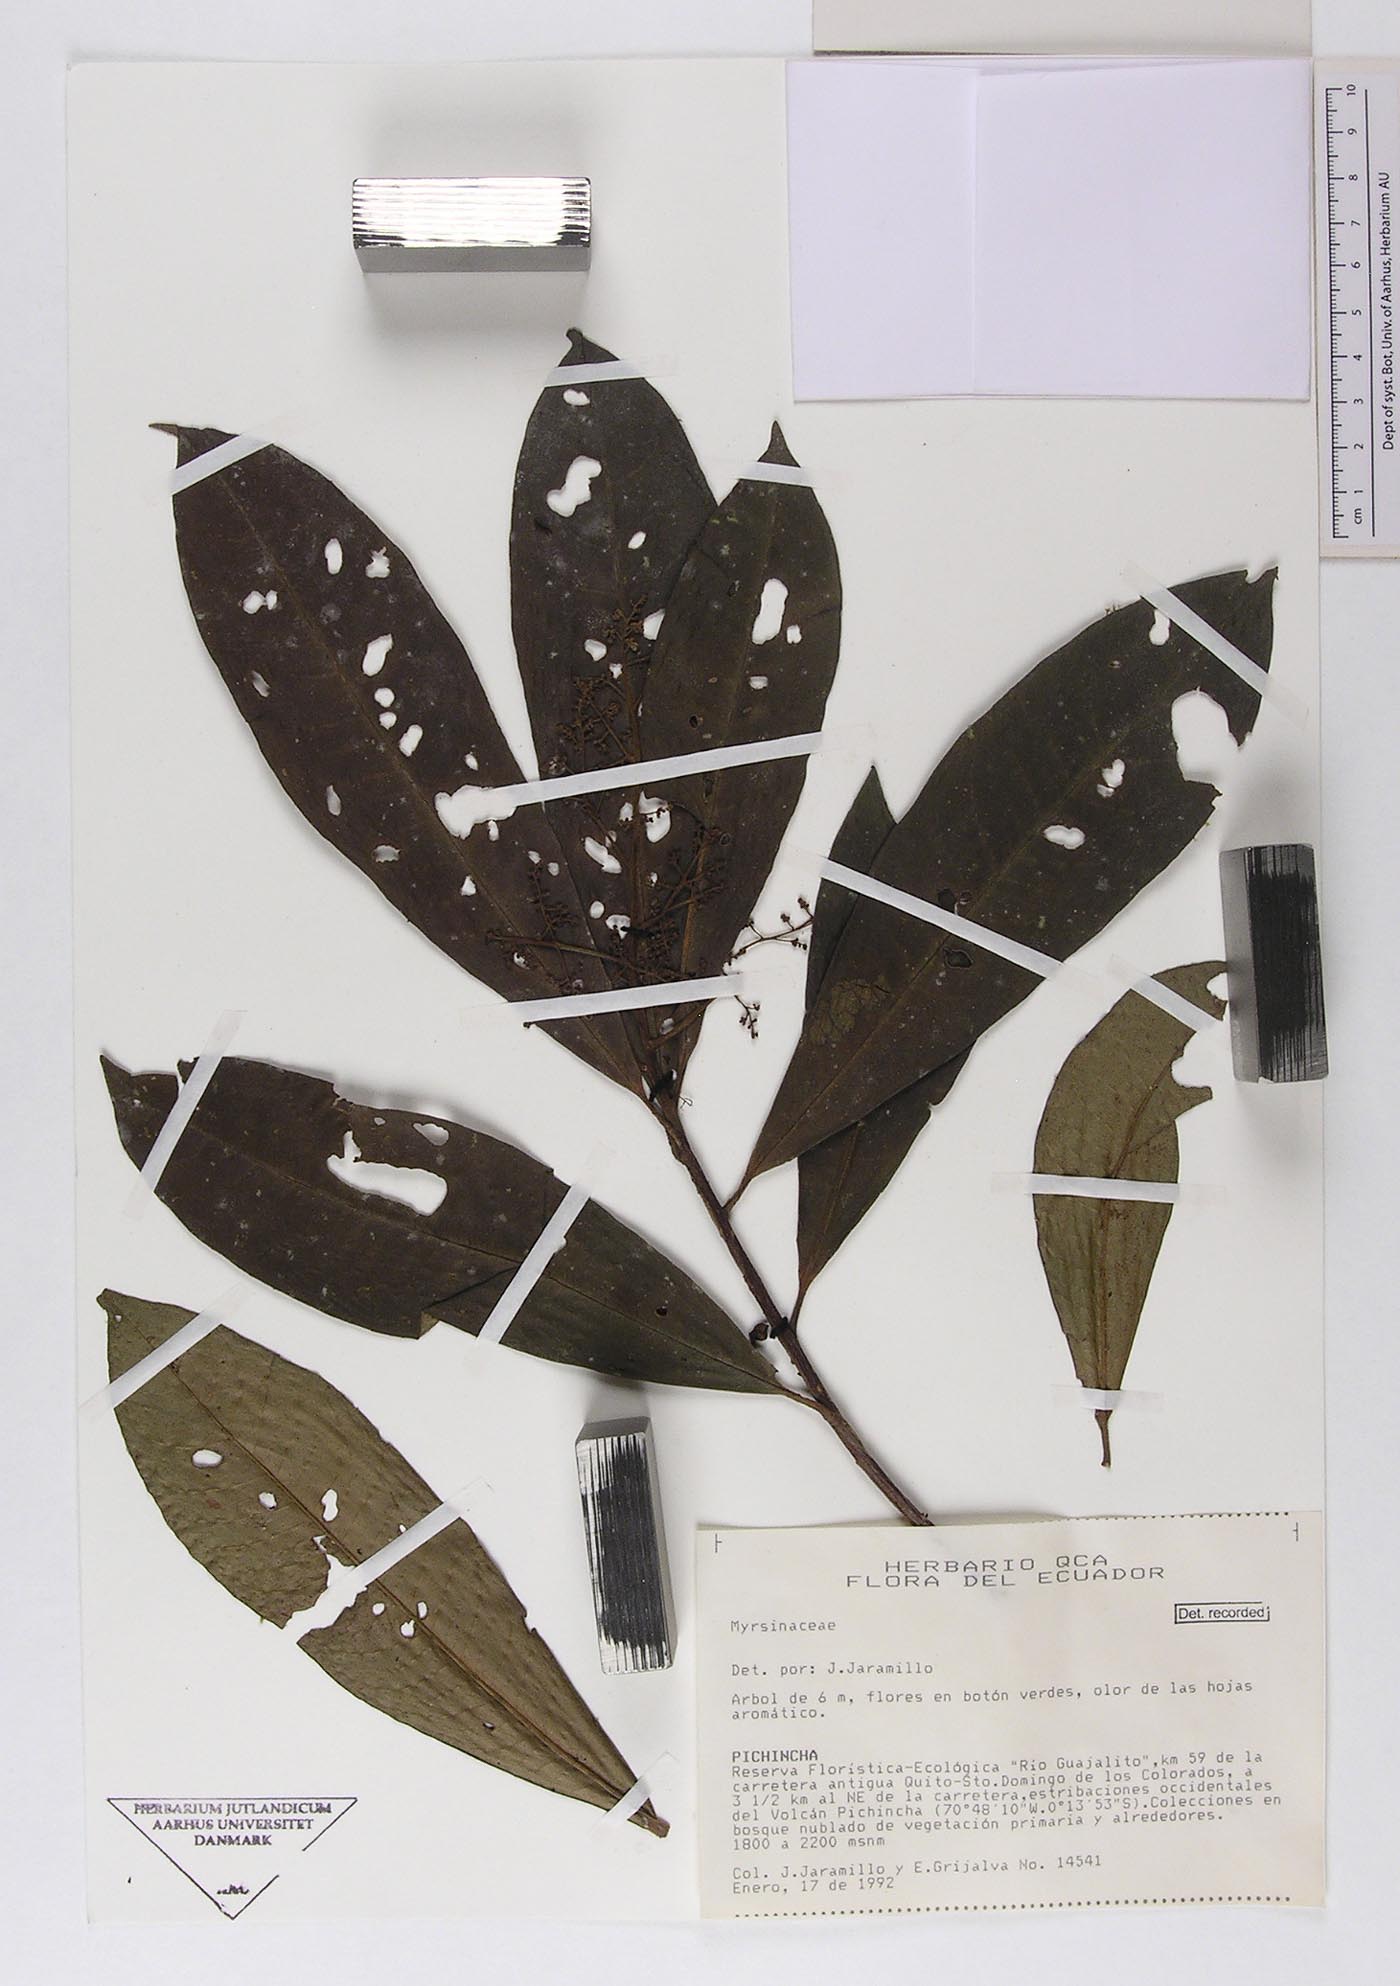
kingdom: Plantae
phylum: Tracheophyta
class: Magnoliopsida
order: Ericales
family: Primulaceae
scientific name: Primulaceae
